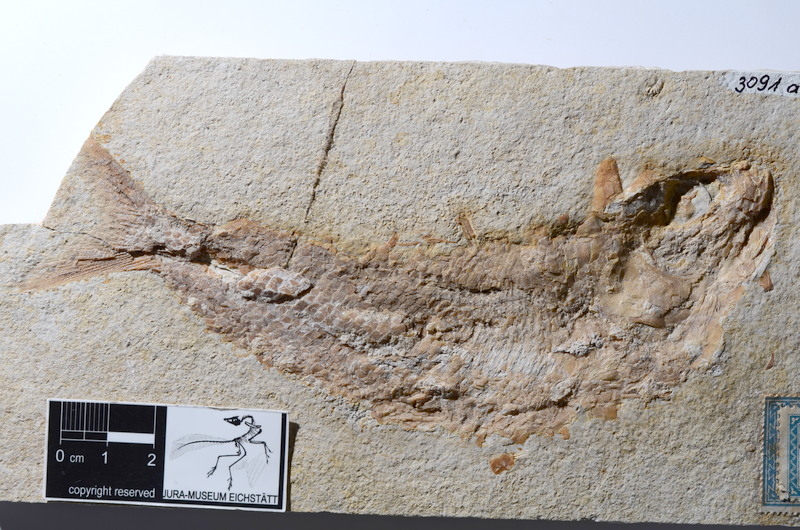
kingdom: Animalia
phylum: Chordata
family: Ankylophoridae
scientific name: Ankylophoridae
